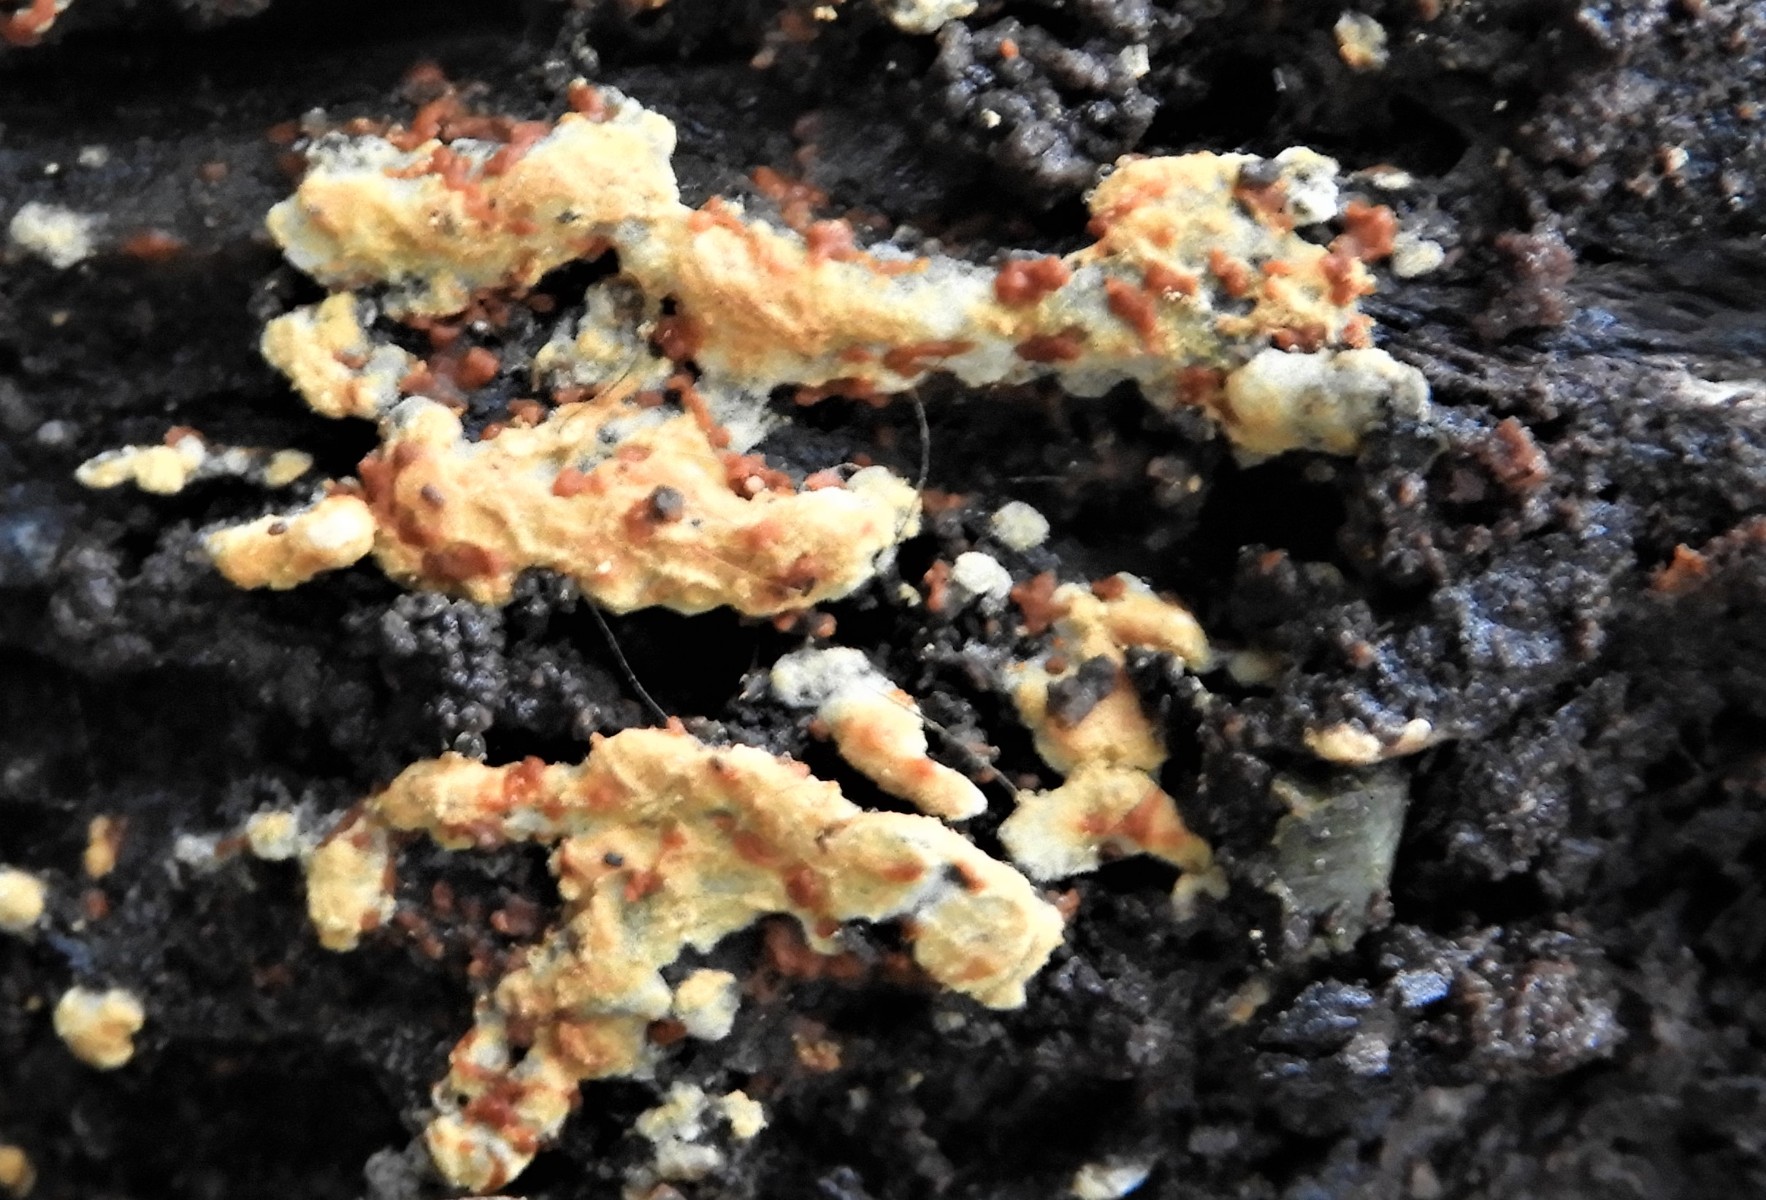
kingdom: Fungi
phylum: Basidiomycota
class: Agaricomycetes
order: Cantharellales
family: Botryobasidiaceae
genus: Botryobasidium
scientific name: Botryobasidium aureum
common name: gylden spindhinde
